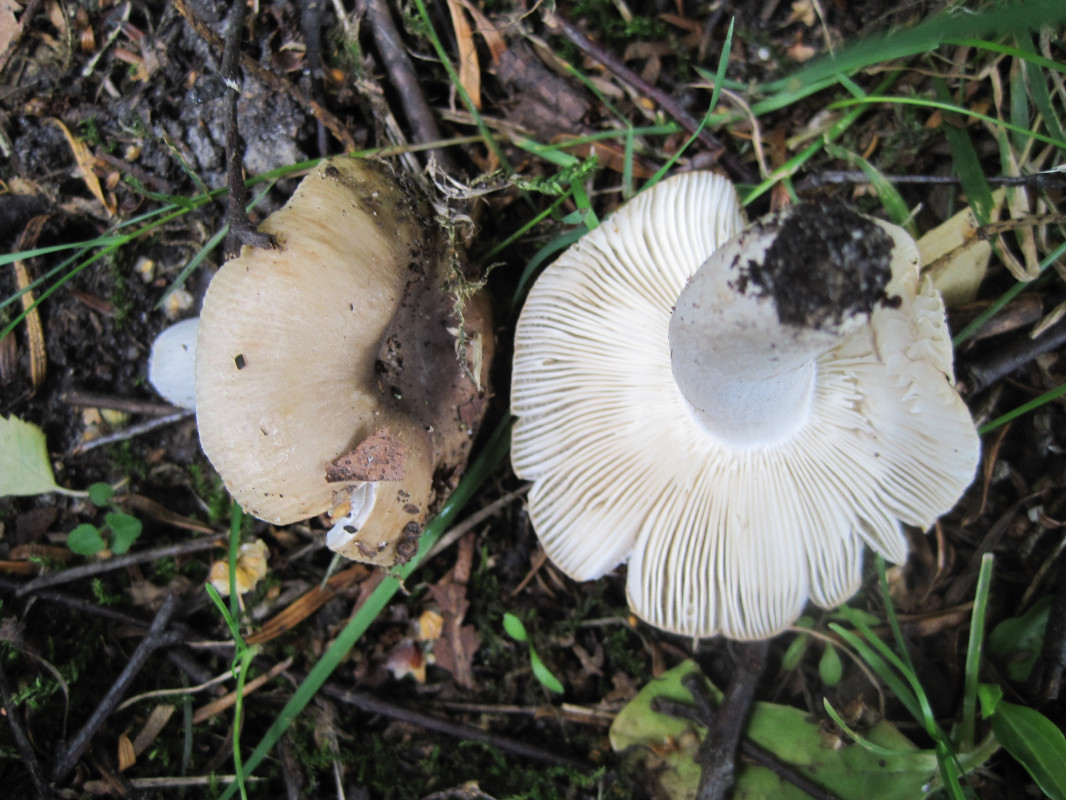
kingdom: Fungi
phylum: Basidiomycota
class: Agaricomycetes
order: Russulales
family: Russulaceae
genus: Russula
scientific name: Russula recondita
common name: mild kam-skørhat
